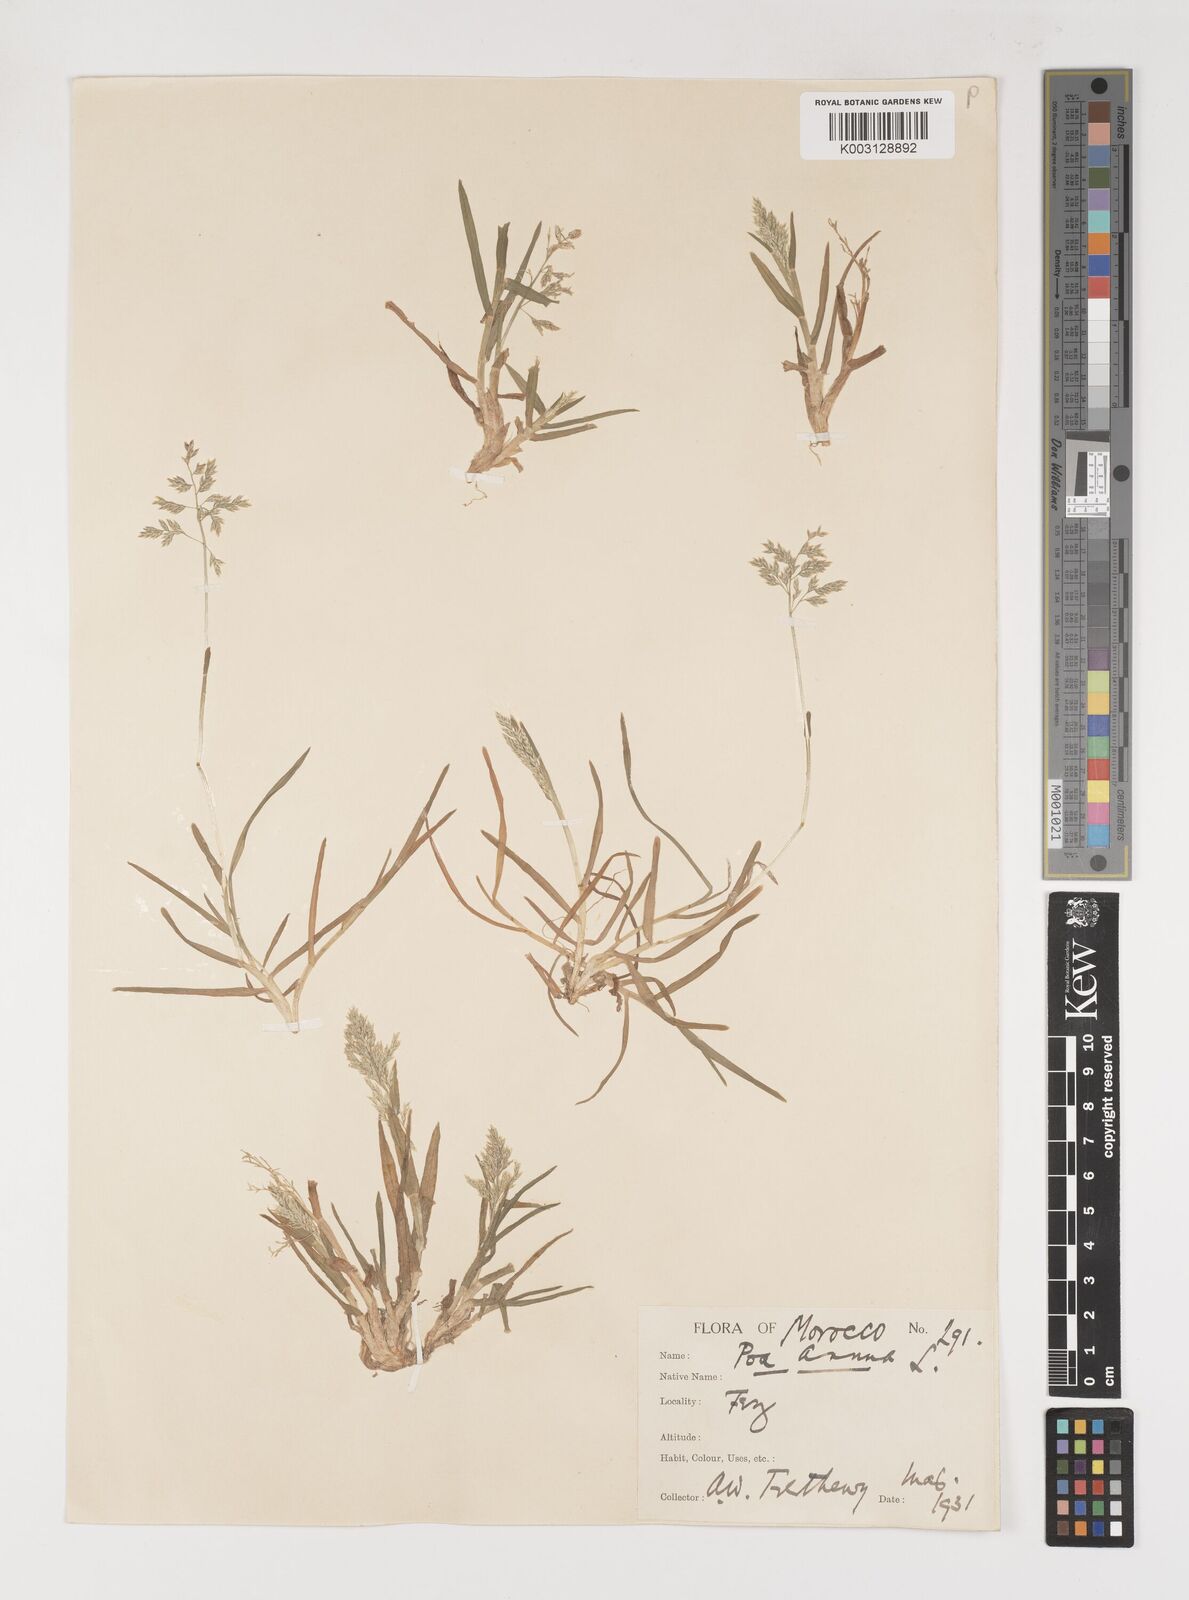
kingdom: Plantae
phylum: Tracheophyta
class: Liliopsida
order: Poales
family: Poaceae
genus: Poa
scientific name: Poa annua
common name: Annual bluegrass
